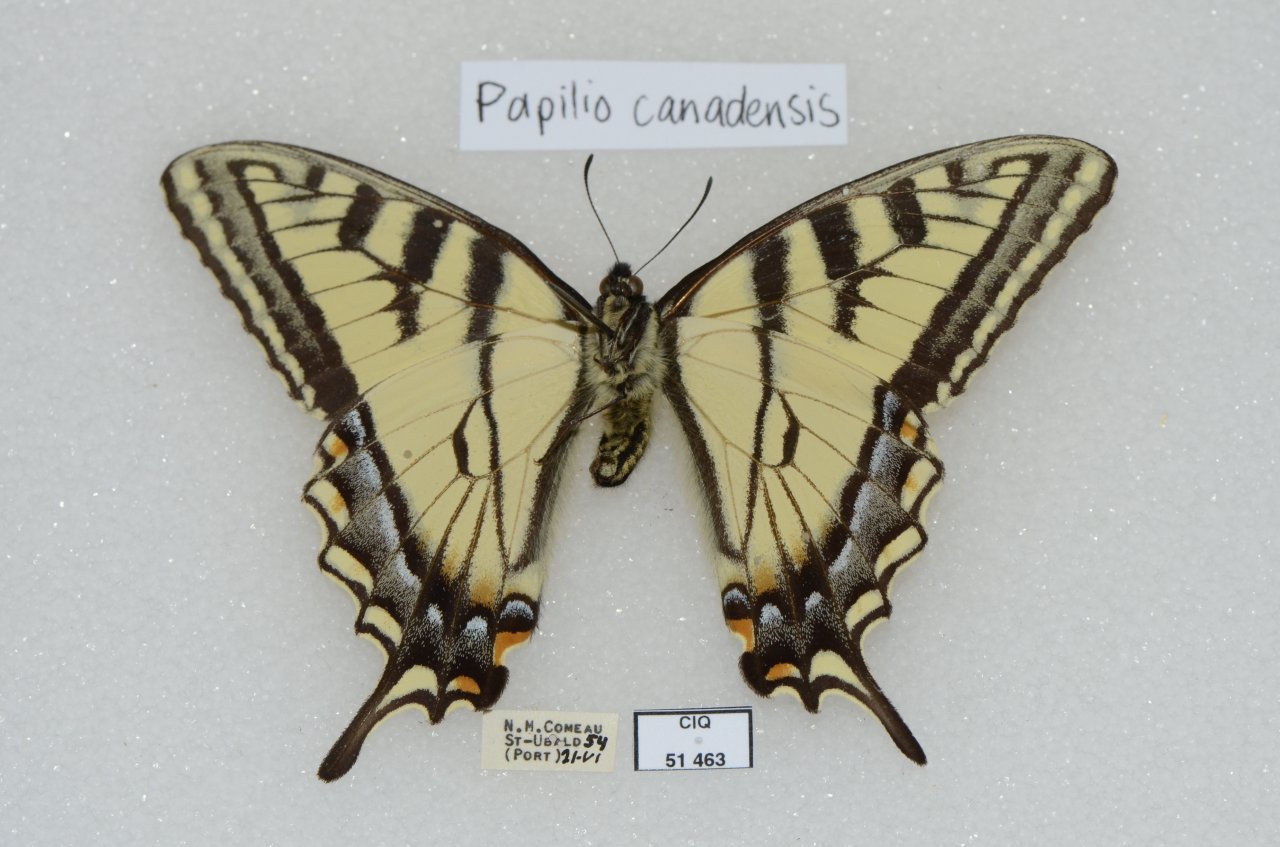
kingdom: Animalia
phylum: Arthropoda
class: Insecta
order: Lepidoptera
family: Papilionidae
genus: Pterourus
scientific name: Pterourus canadensis
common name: Canadian Tiger Swallowtail
